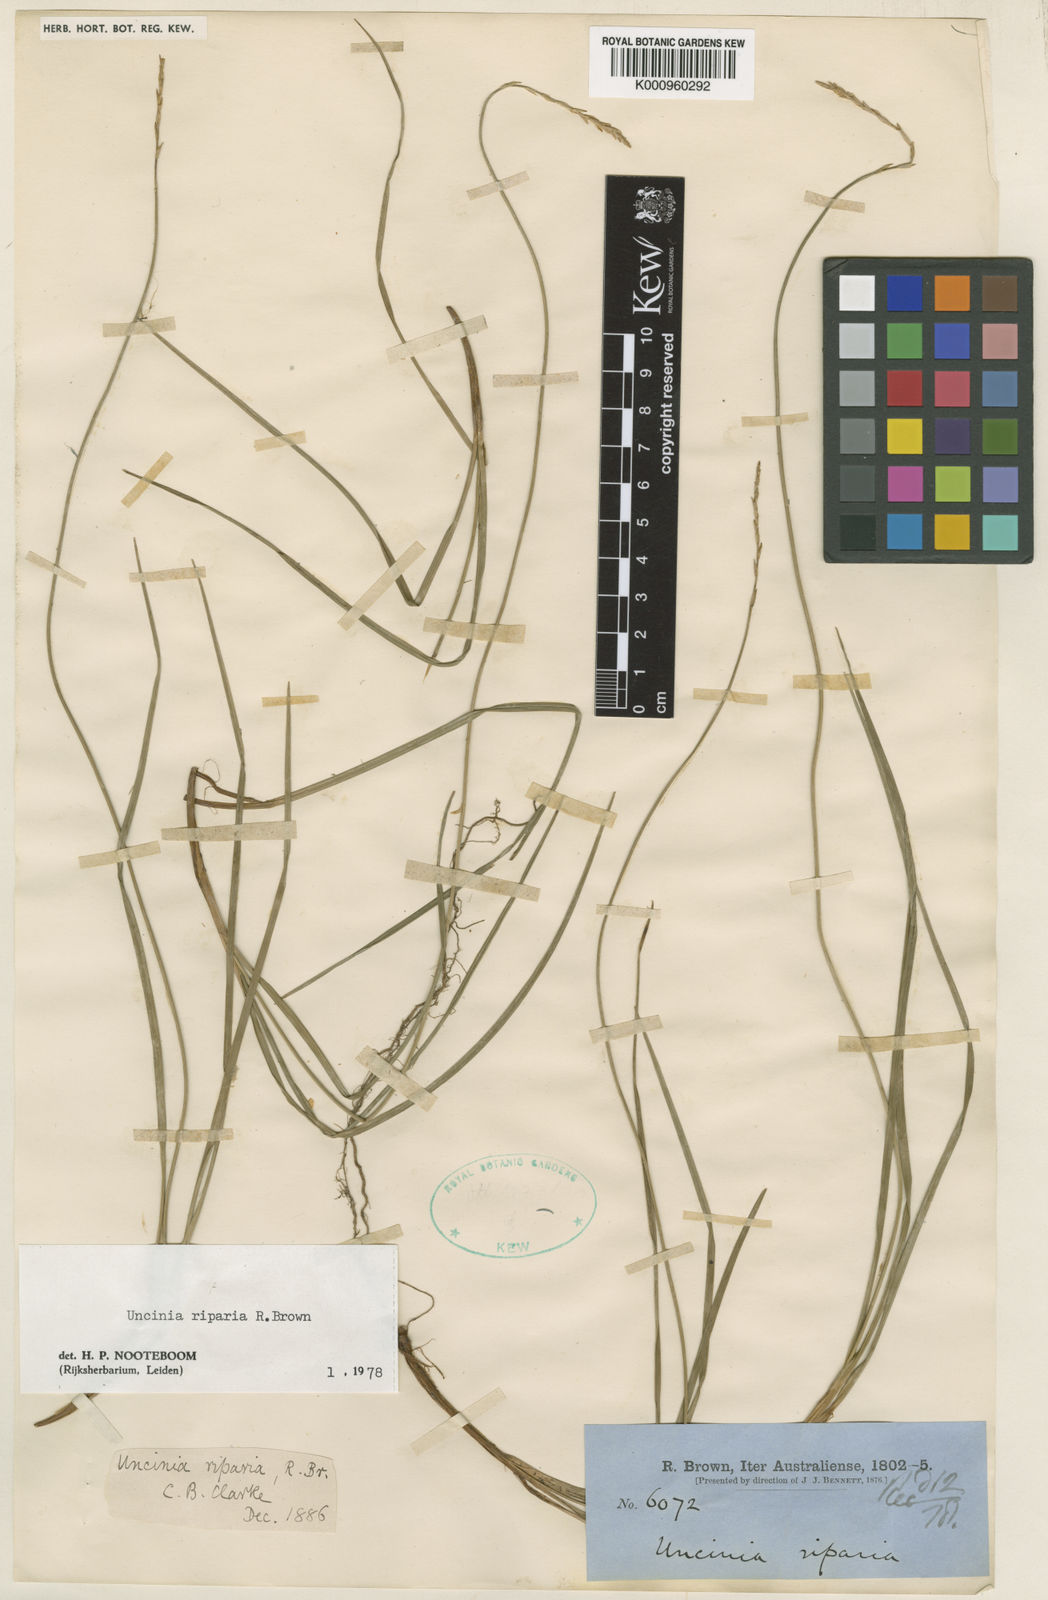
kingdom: Plantae
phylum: Tracheophyta
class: Liliopsida
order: Poales
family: Cyperaceae
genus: Carex
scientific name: Carex umbricola
